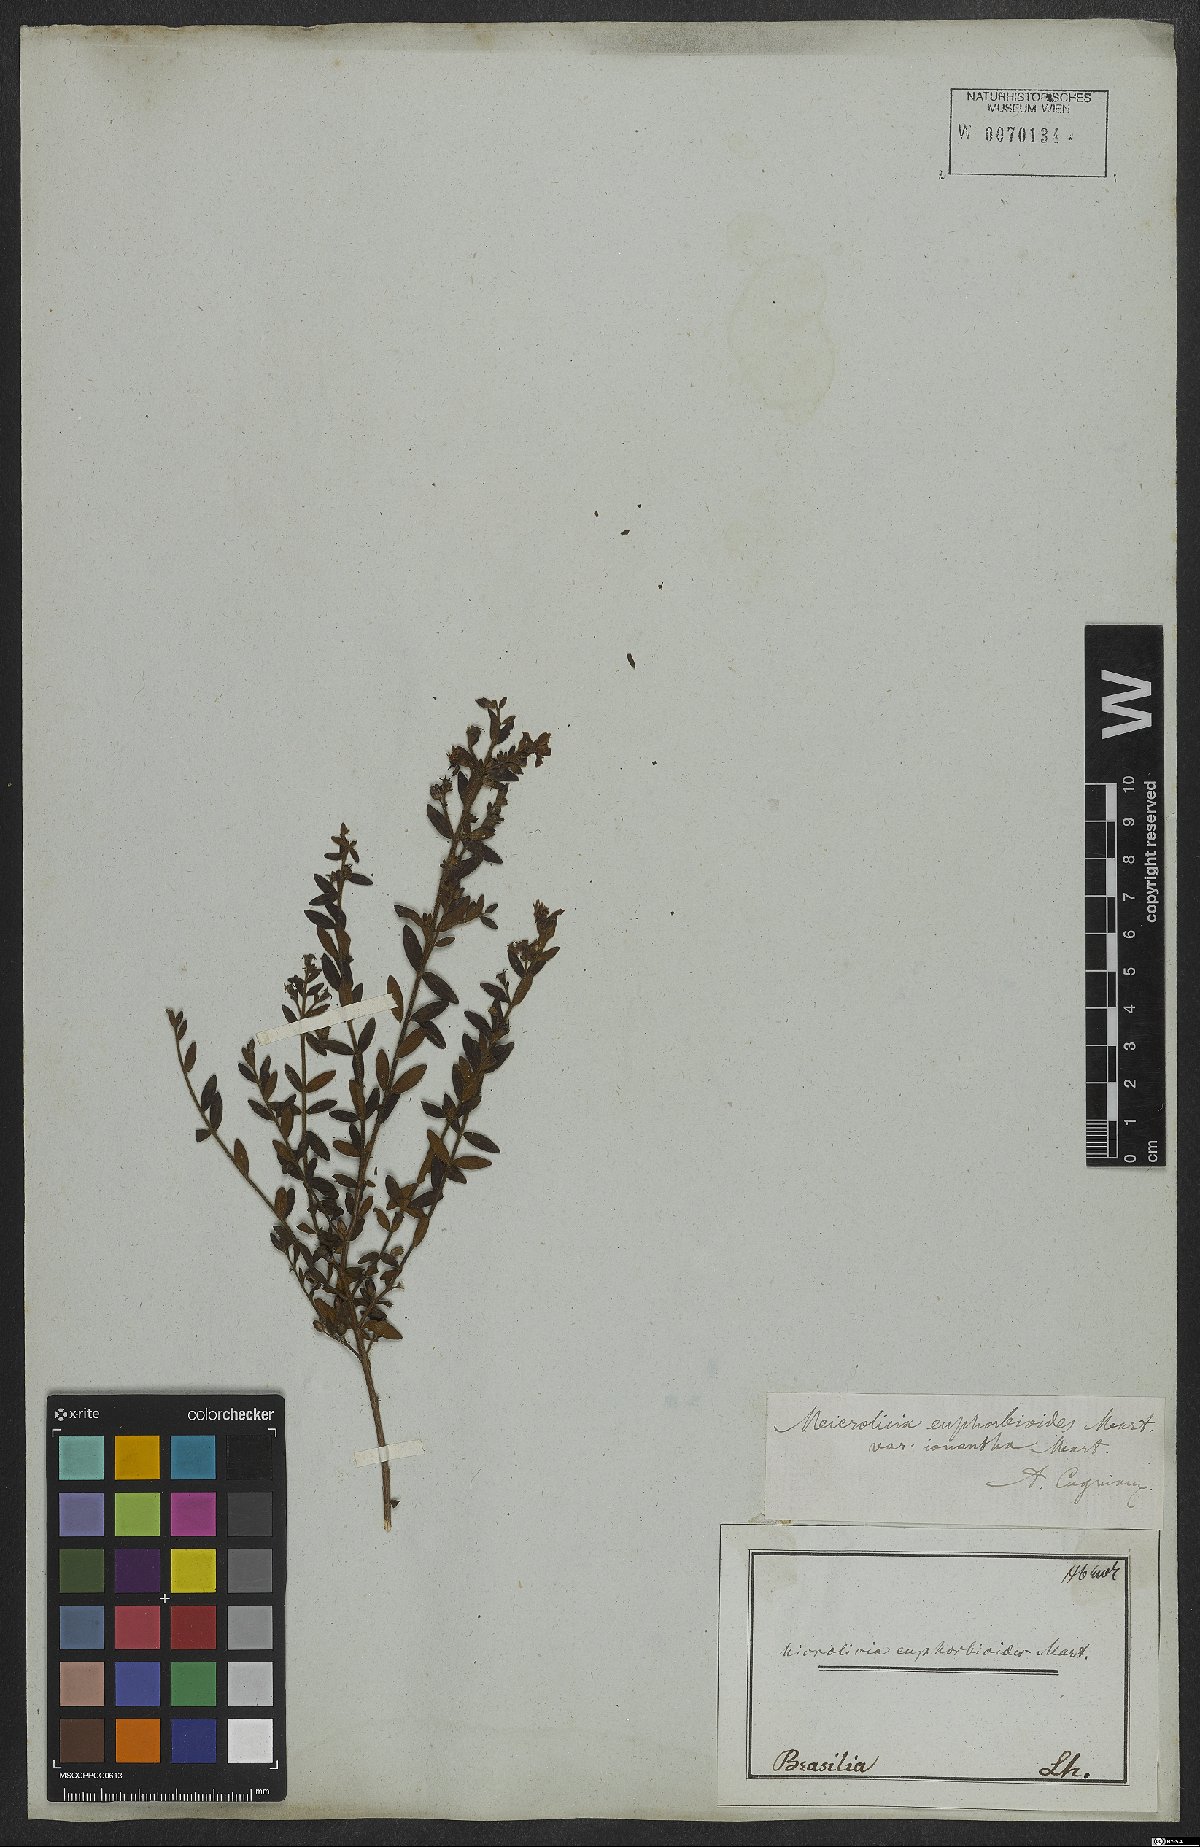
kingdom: Plantae
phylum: Tracheophyta
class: Magnoliopsida
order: Myrtales
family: Melastomataceae
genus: Microlicia
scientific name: Microlicia euphorbioides
